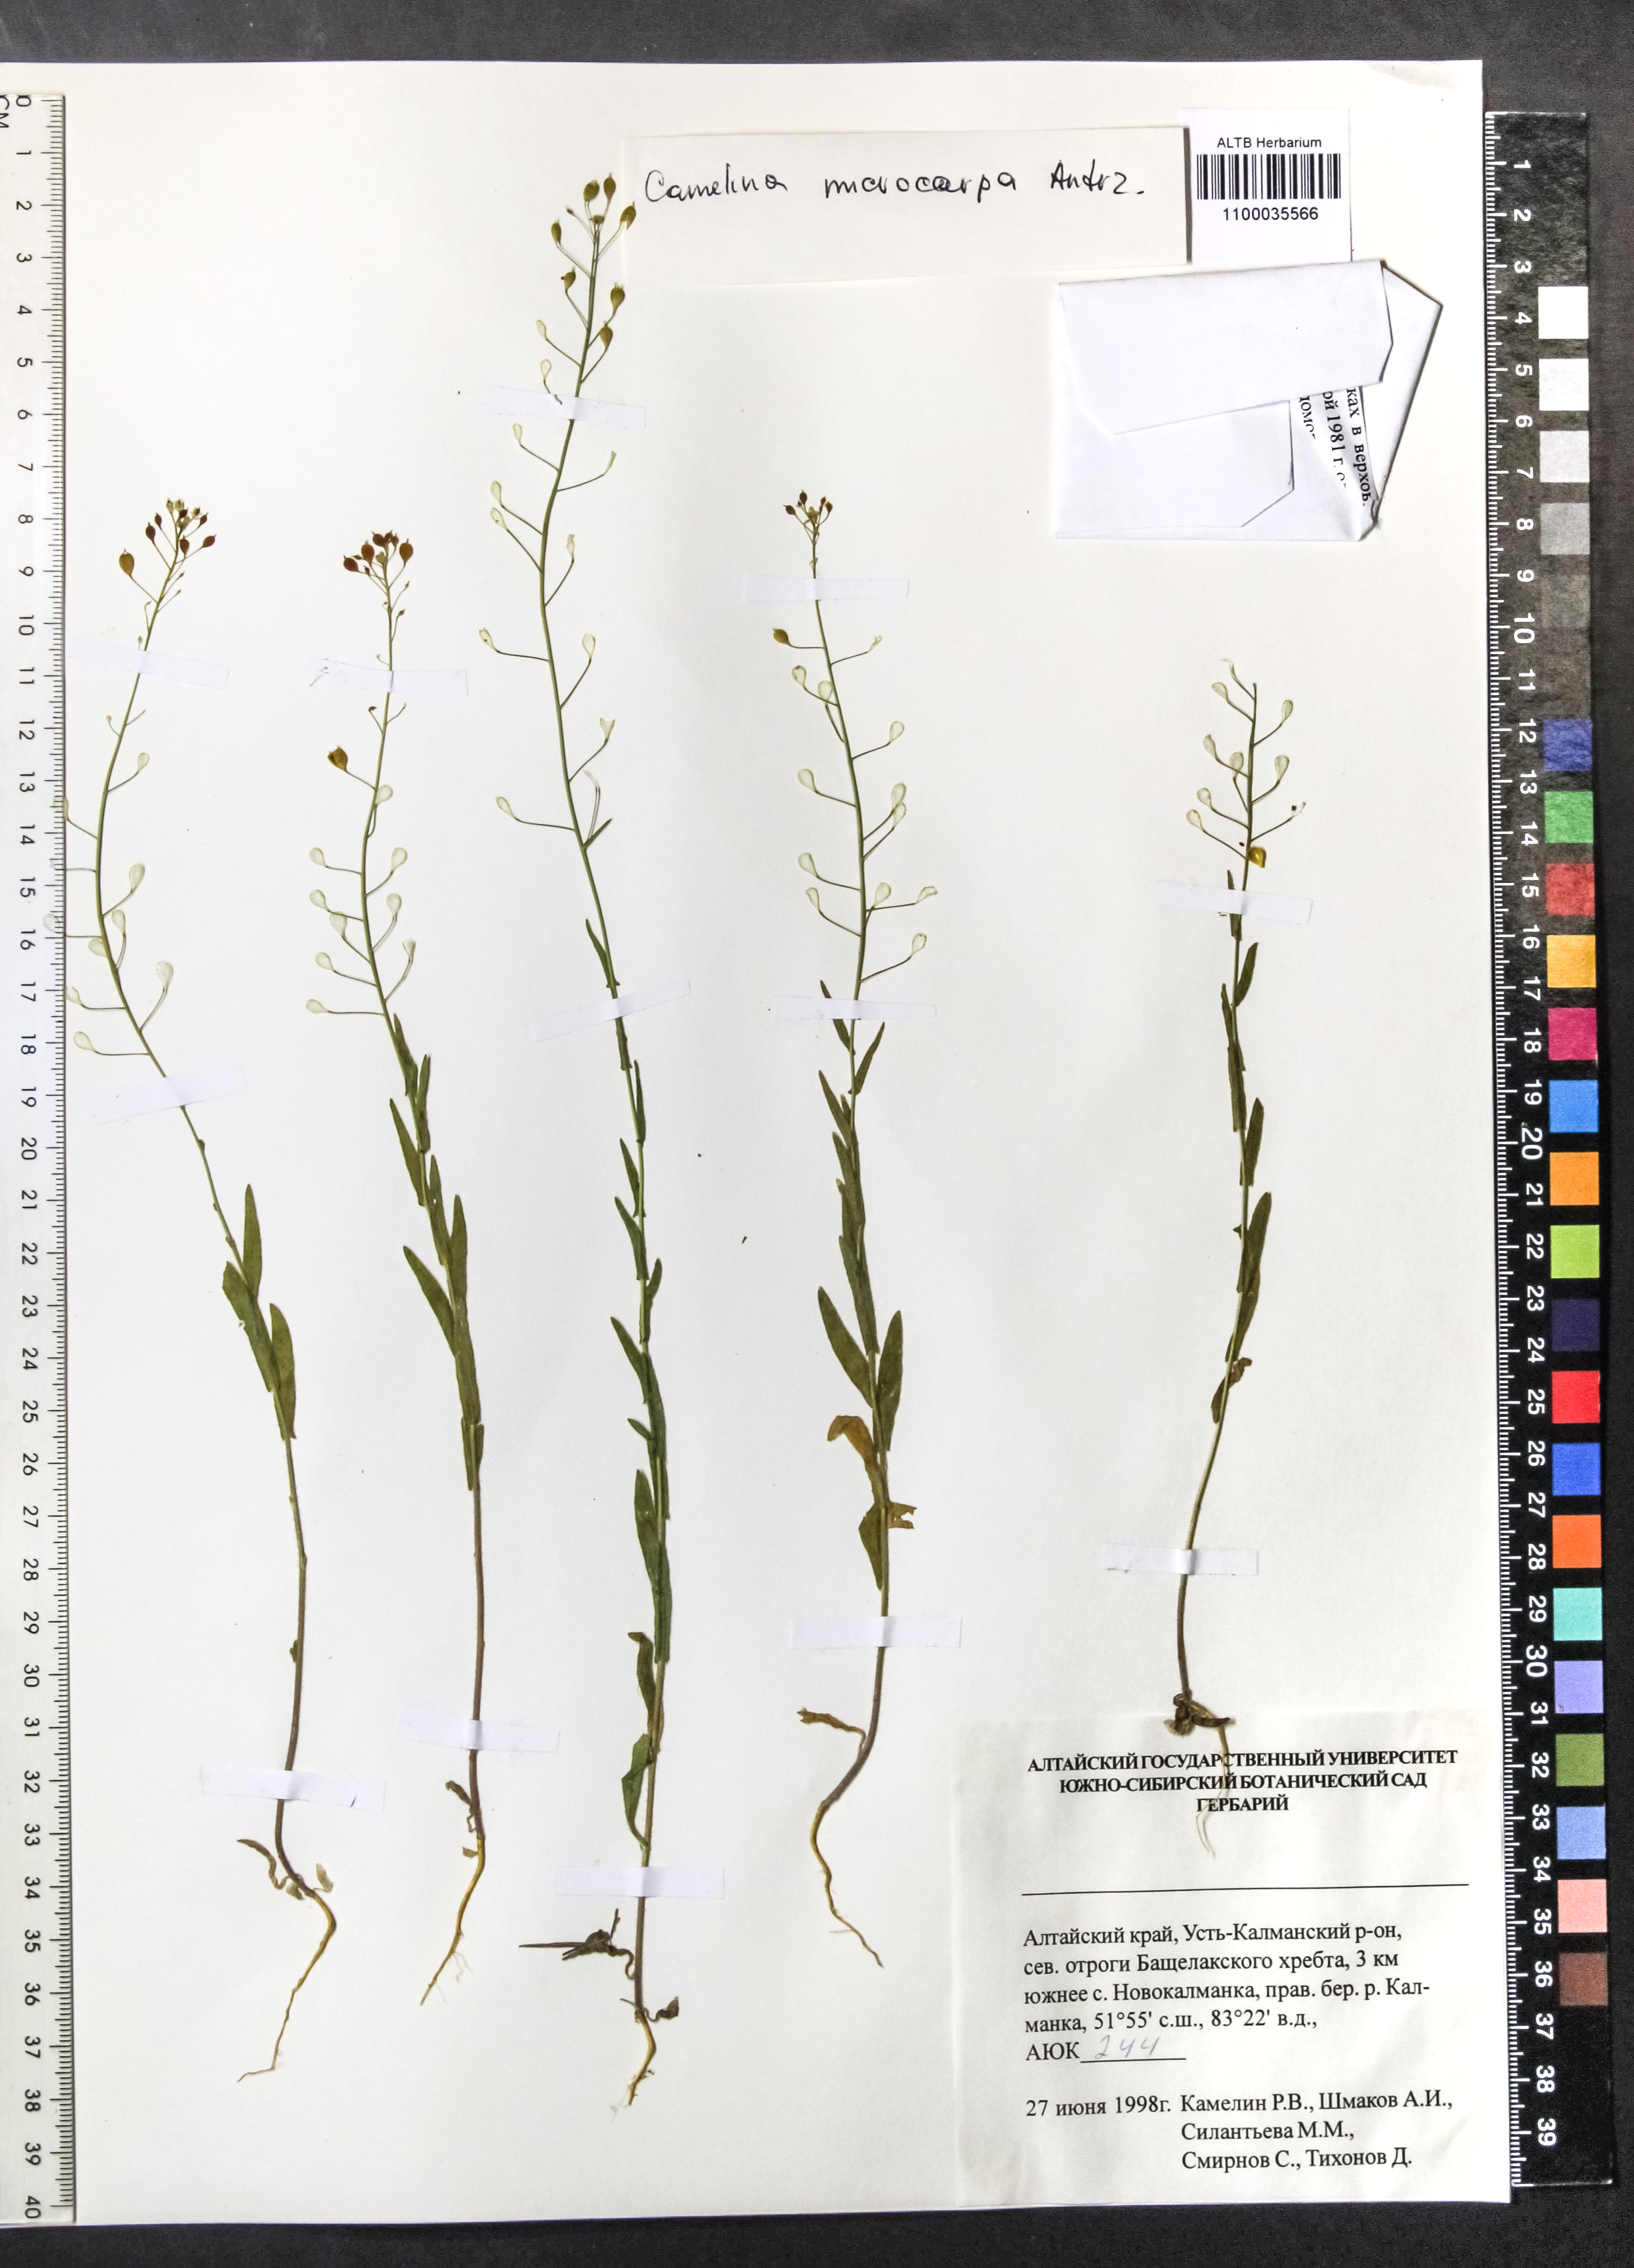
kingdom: Plantae
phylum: Tracheophyta
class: Magnoliopsida
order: Brassicales
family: Brassicaceae
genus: Camelina
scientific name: Camelina microcarpa
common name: Lesser gold-of-pleasure
